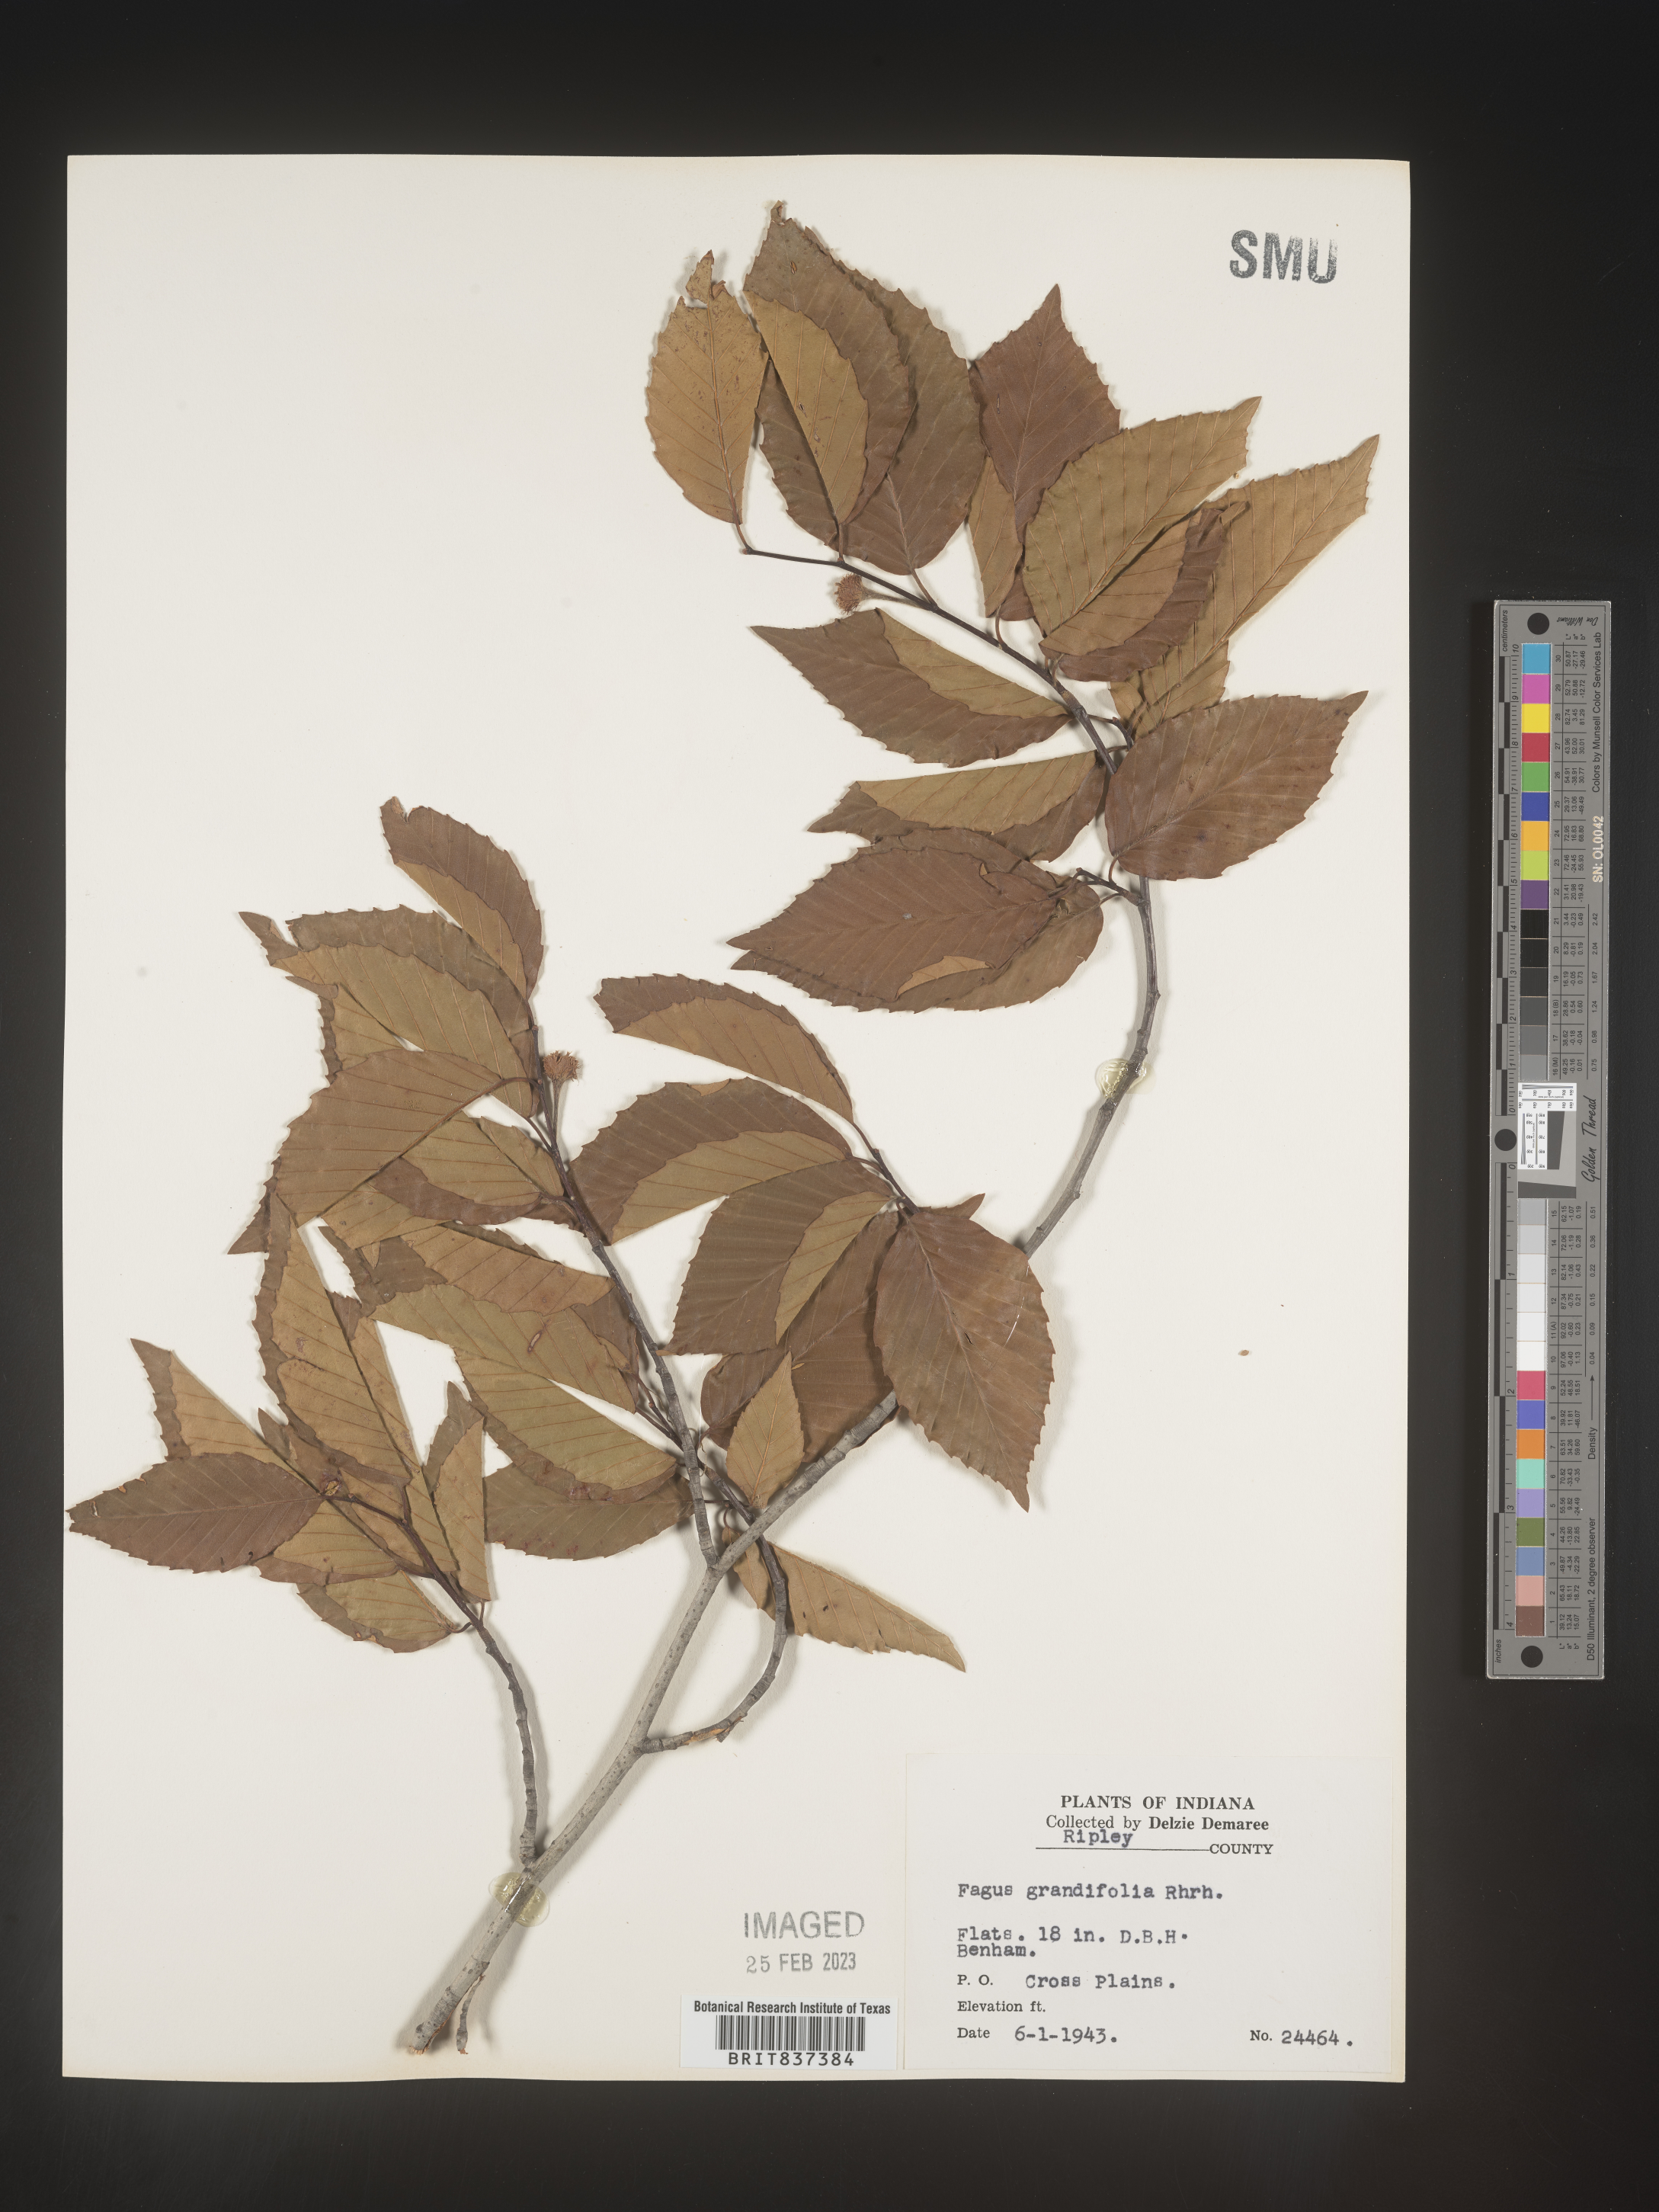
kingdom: Plantae
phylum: Tracheophyta
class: Magnoliopsida
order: Fagales
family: Fagaceae
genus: Fagus
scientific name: Fagus grandifolia
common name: American beech
